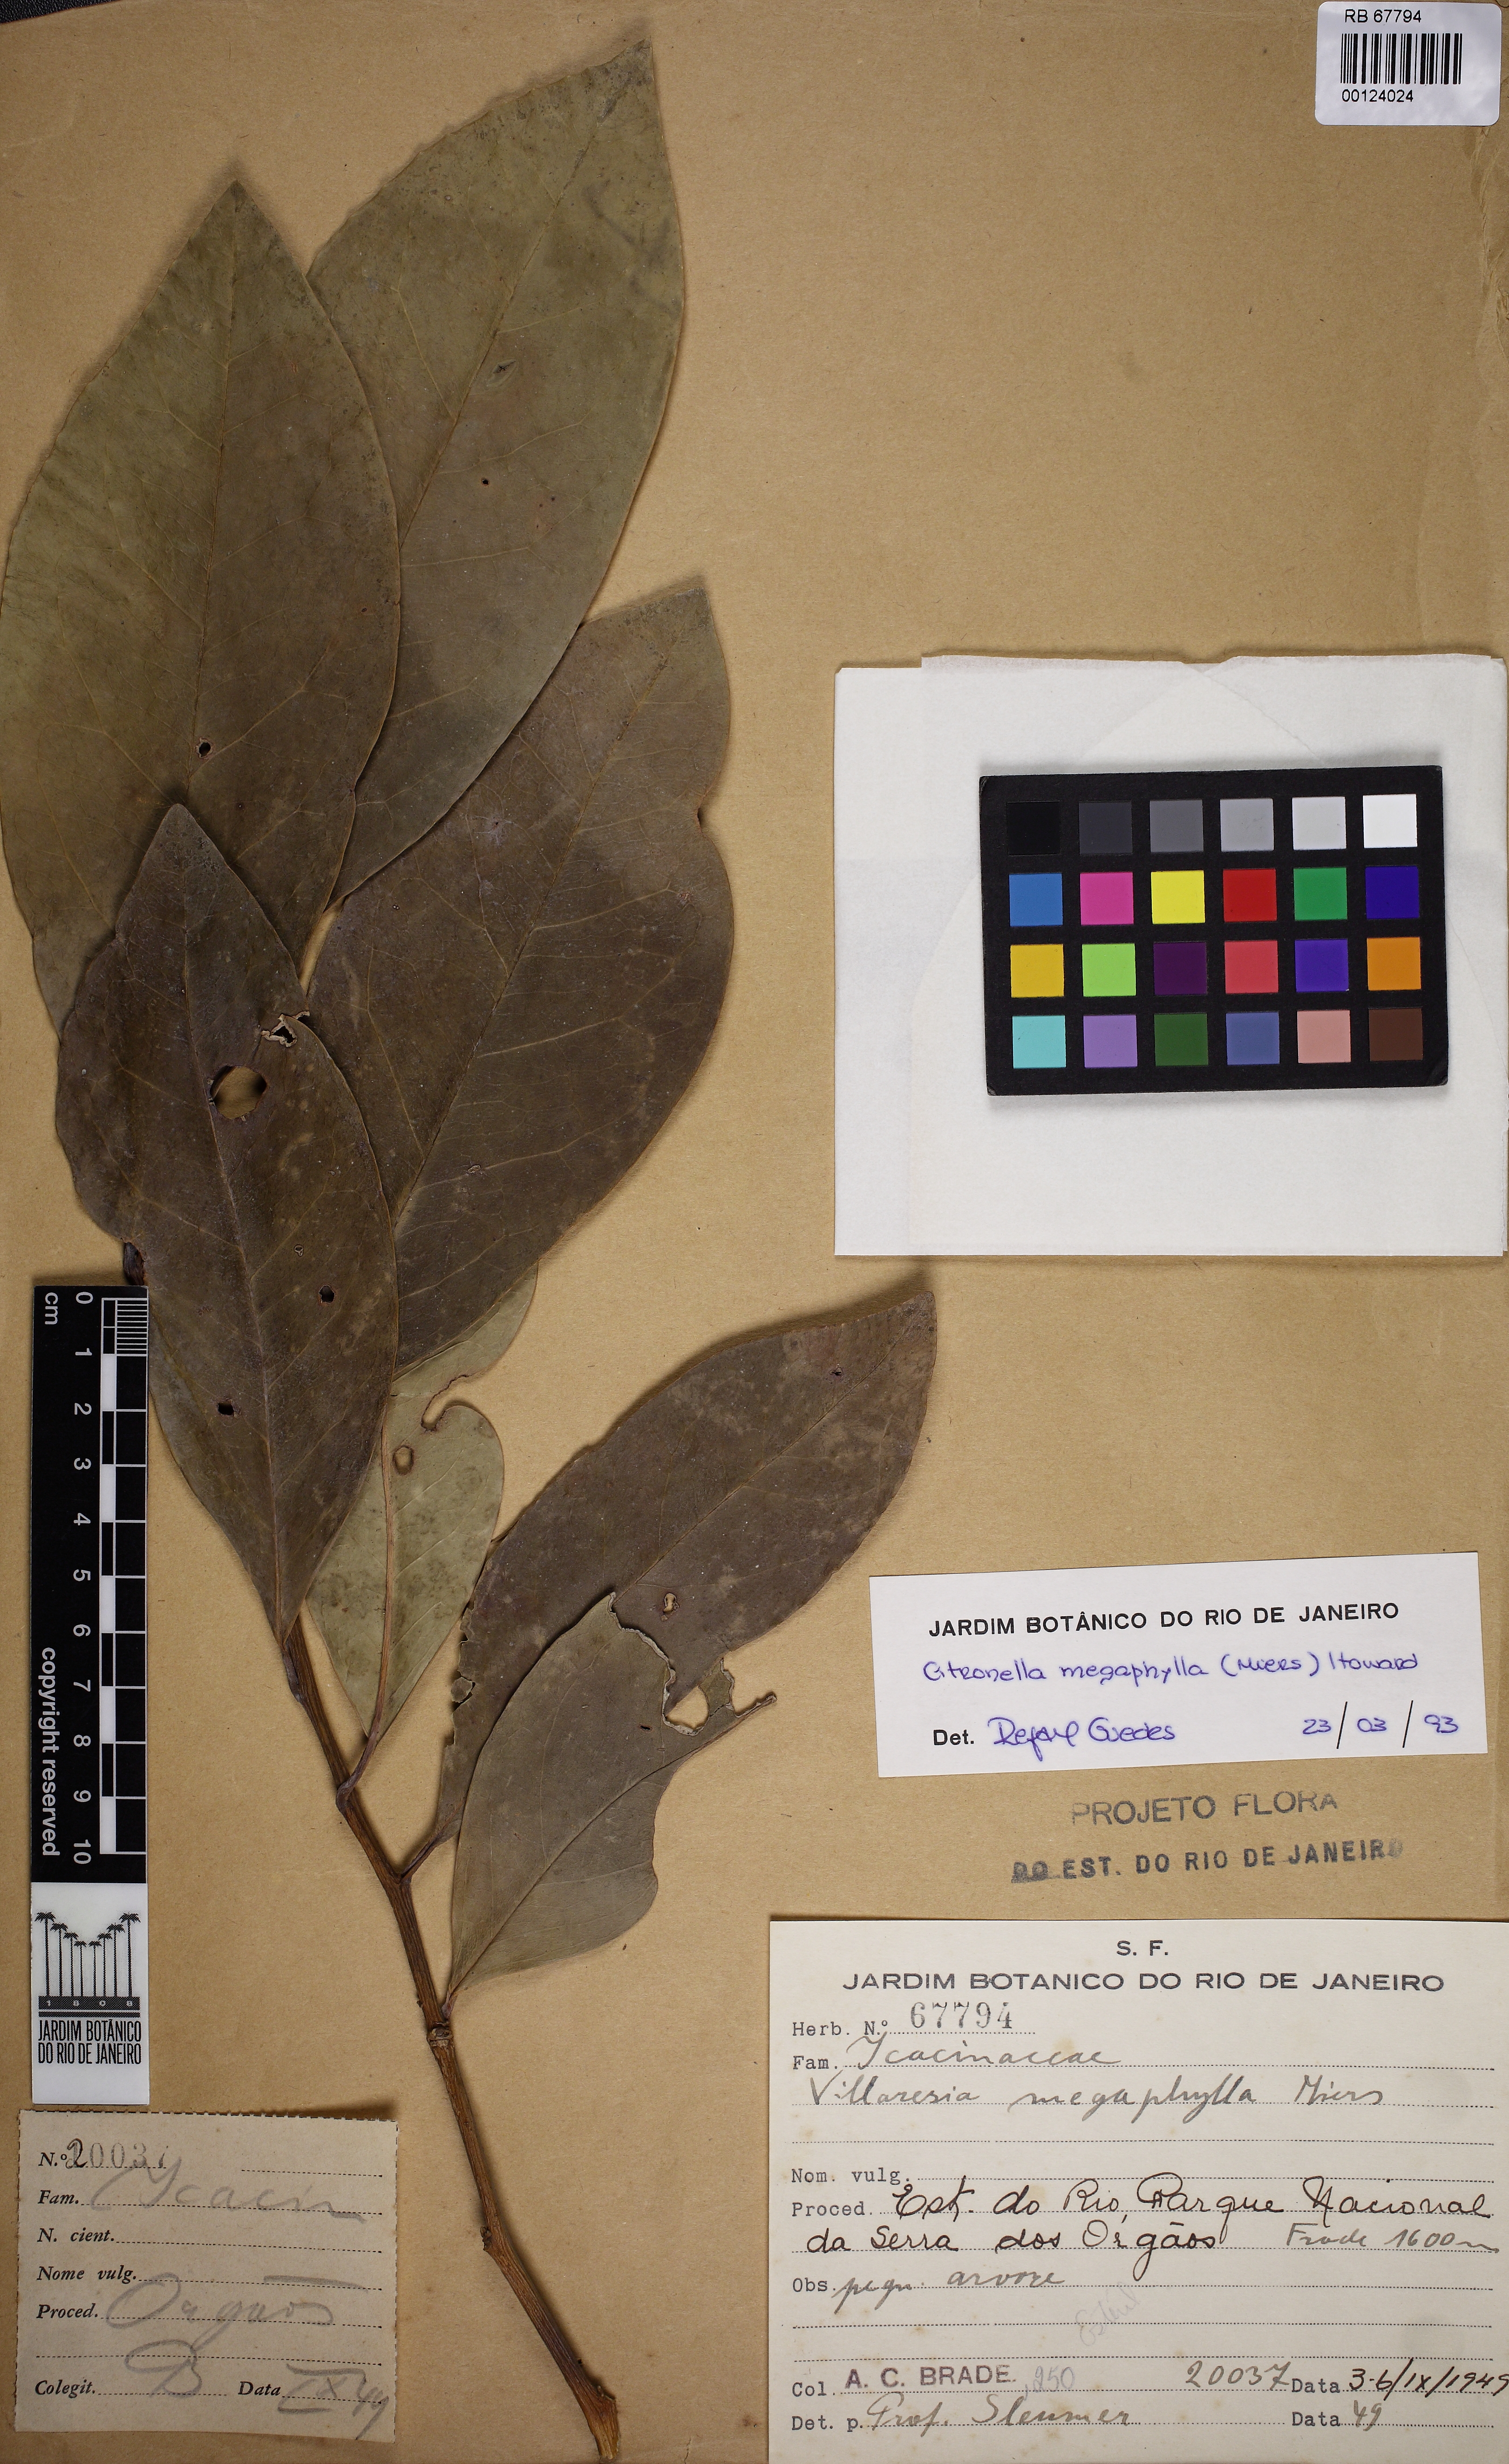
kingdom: Plantae
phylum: Tracheophyta
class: Magnoliopsida
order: Cardiopteridales
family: Cardiopteridaceae
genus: Citronella
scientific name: Citronella paniculata
